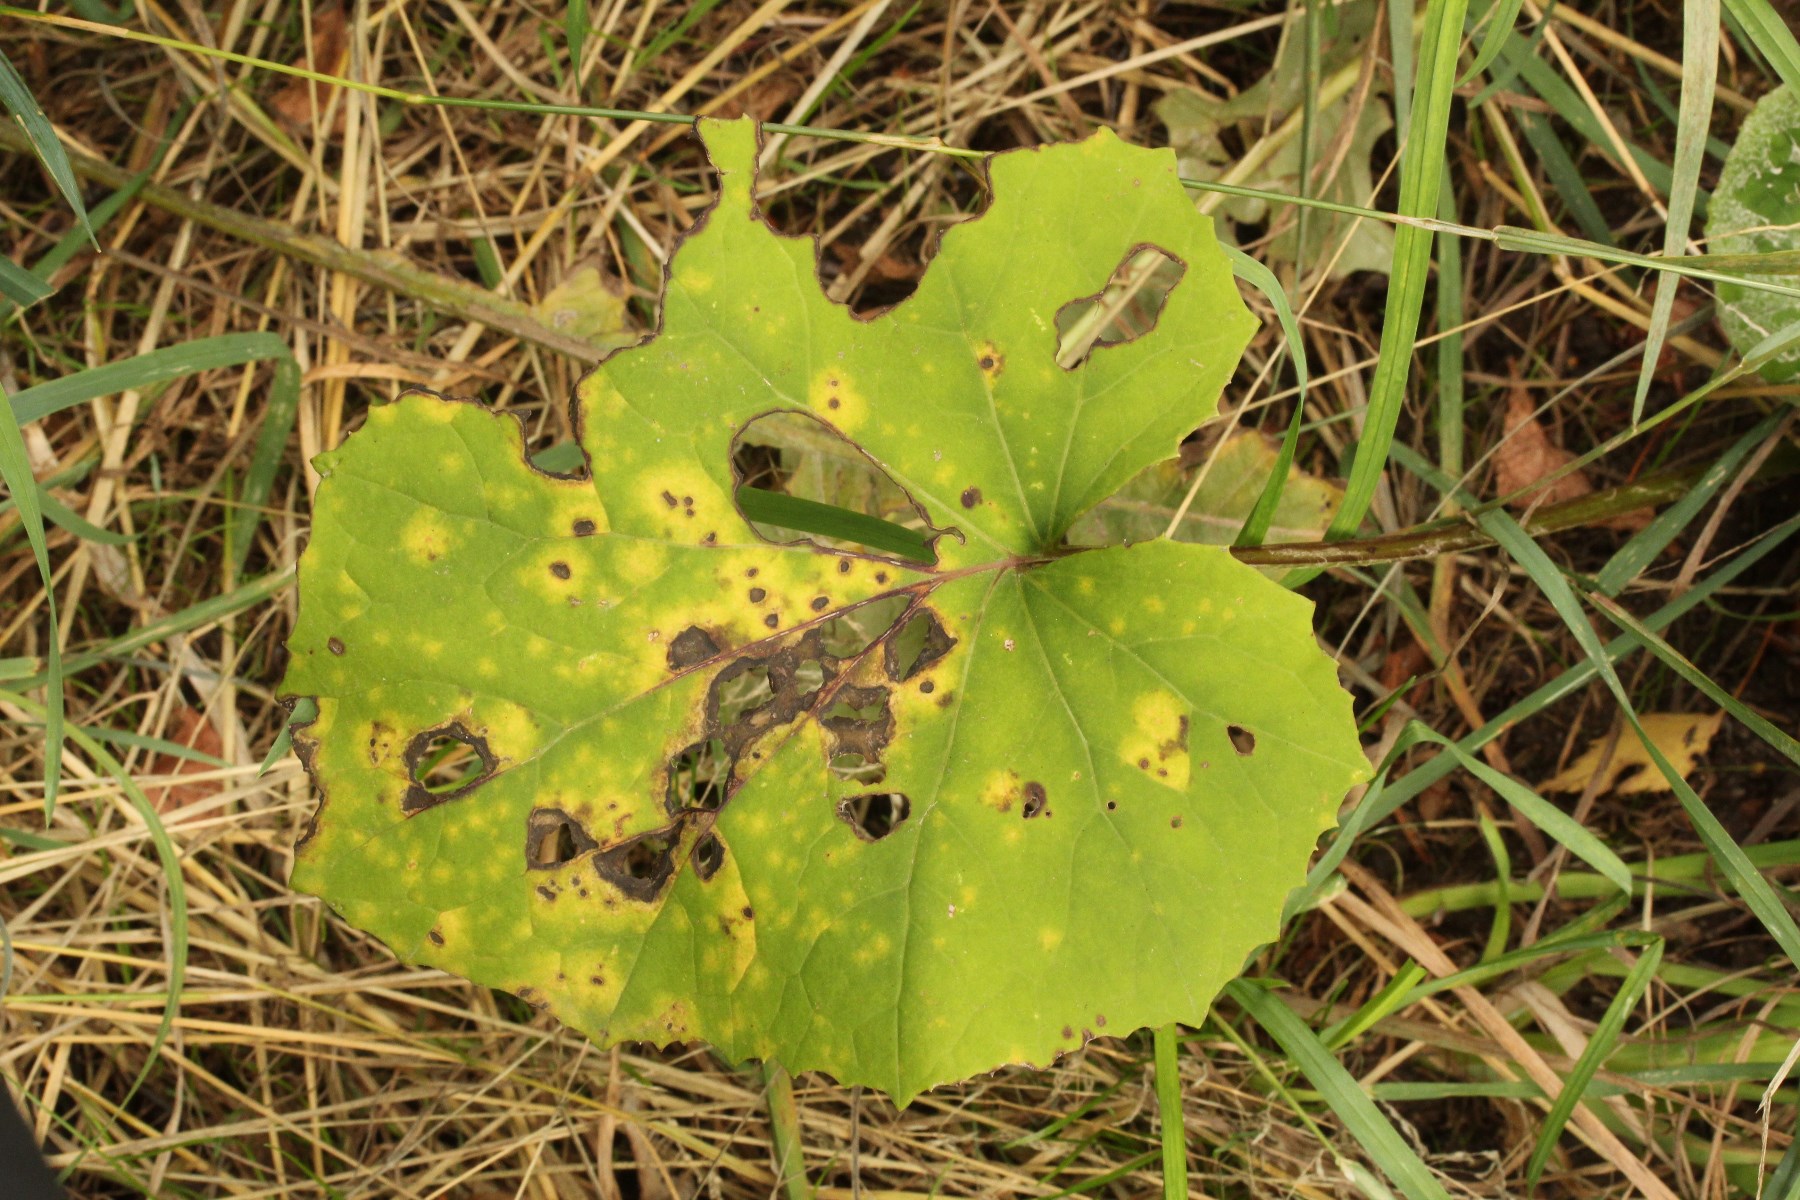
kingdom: Fungi
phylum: Basidiomycota
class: Pucciniomycetes
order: Pucciniales
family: Coleosporiaceae
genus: Coleosporium
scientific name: Coleosporium tussilaginis
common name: almindelig fyrrenålerust
